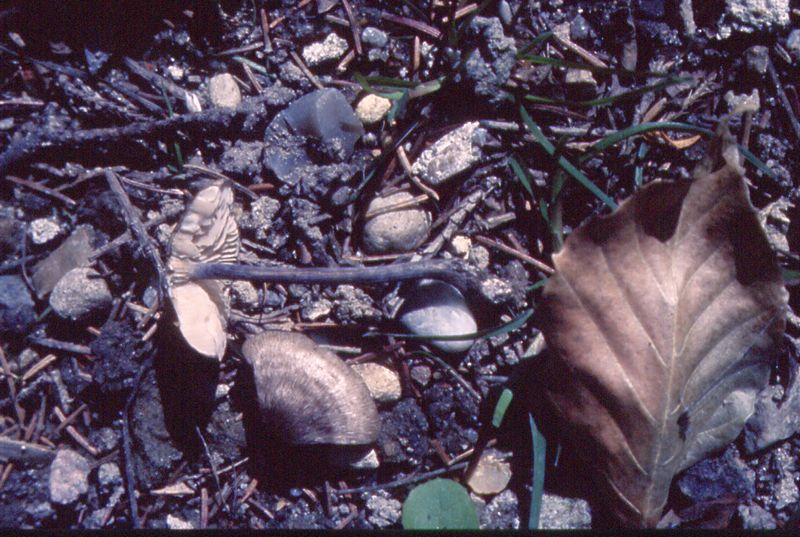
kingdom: Fungi
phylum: Basidiomycota
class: Agaricomycetes
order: Agaricales
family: Entolomataceae
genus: Entoloma
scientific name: Entoloma placidum
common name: bøge-rødblad
